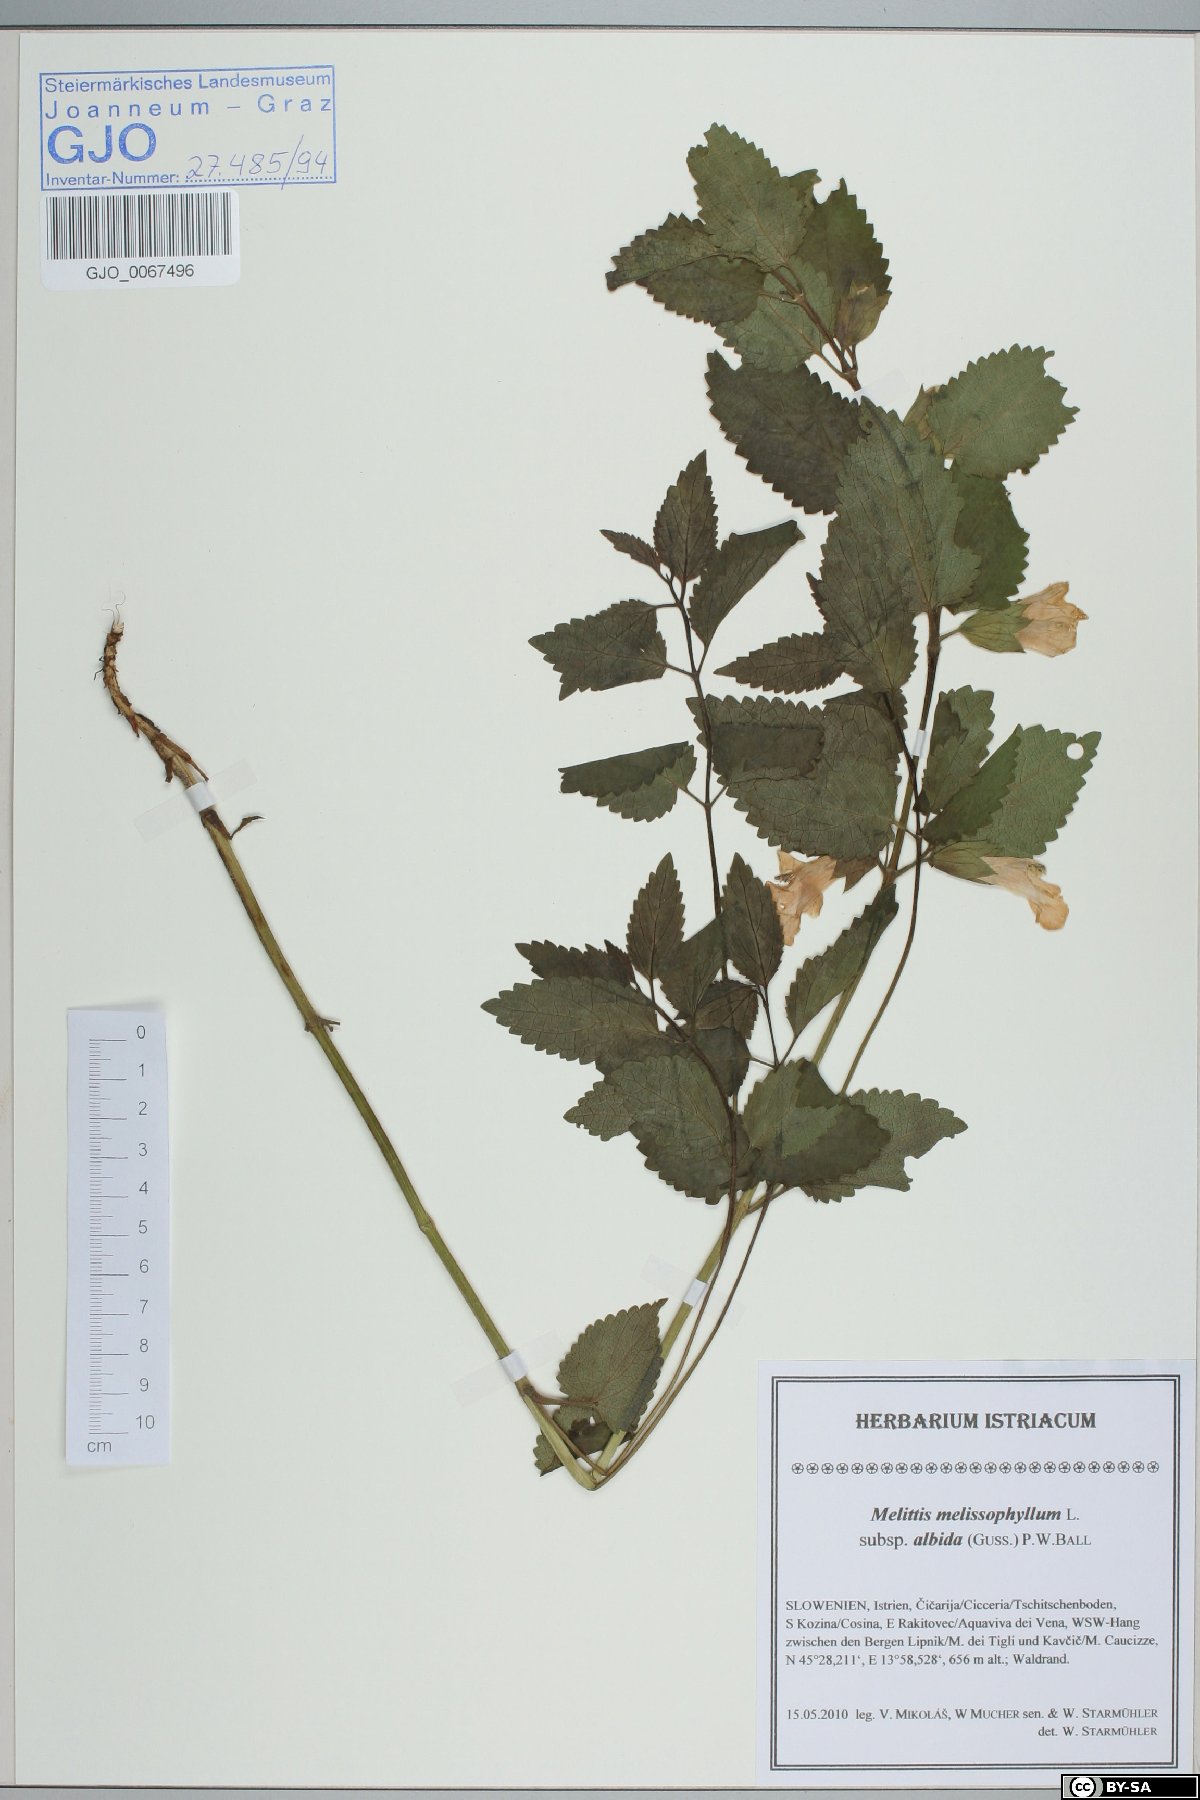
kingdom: Plantae
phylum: Tracheophyta
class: Magnoliopsida
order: Lamiales
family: Lamiaceae
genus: Melittis
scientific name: Melittis melissophyllum
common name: Bastard balm
